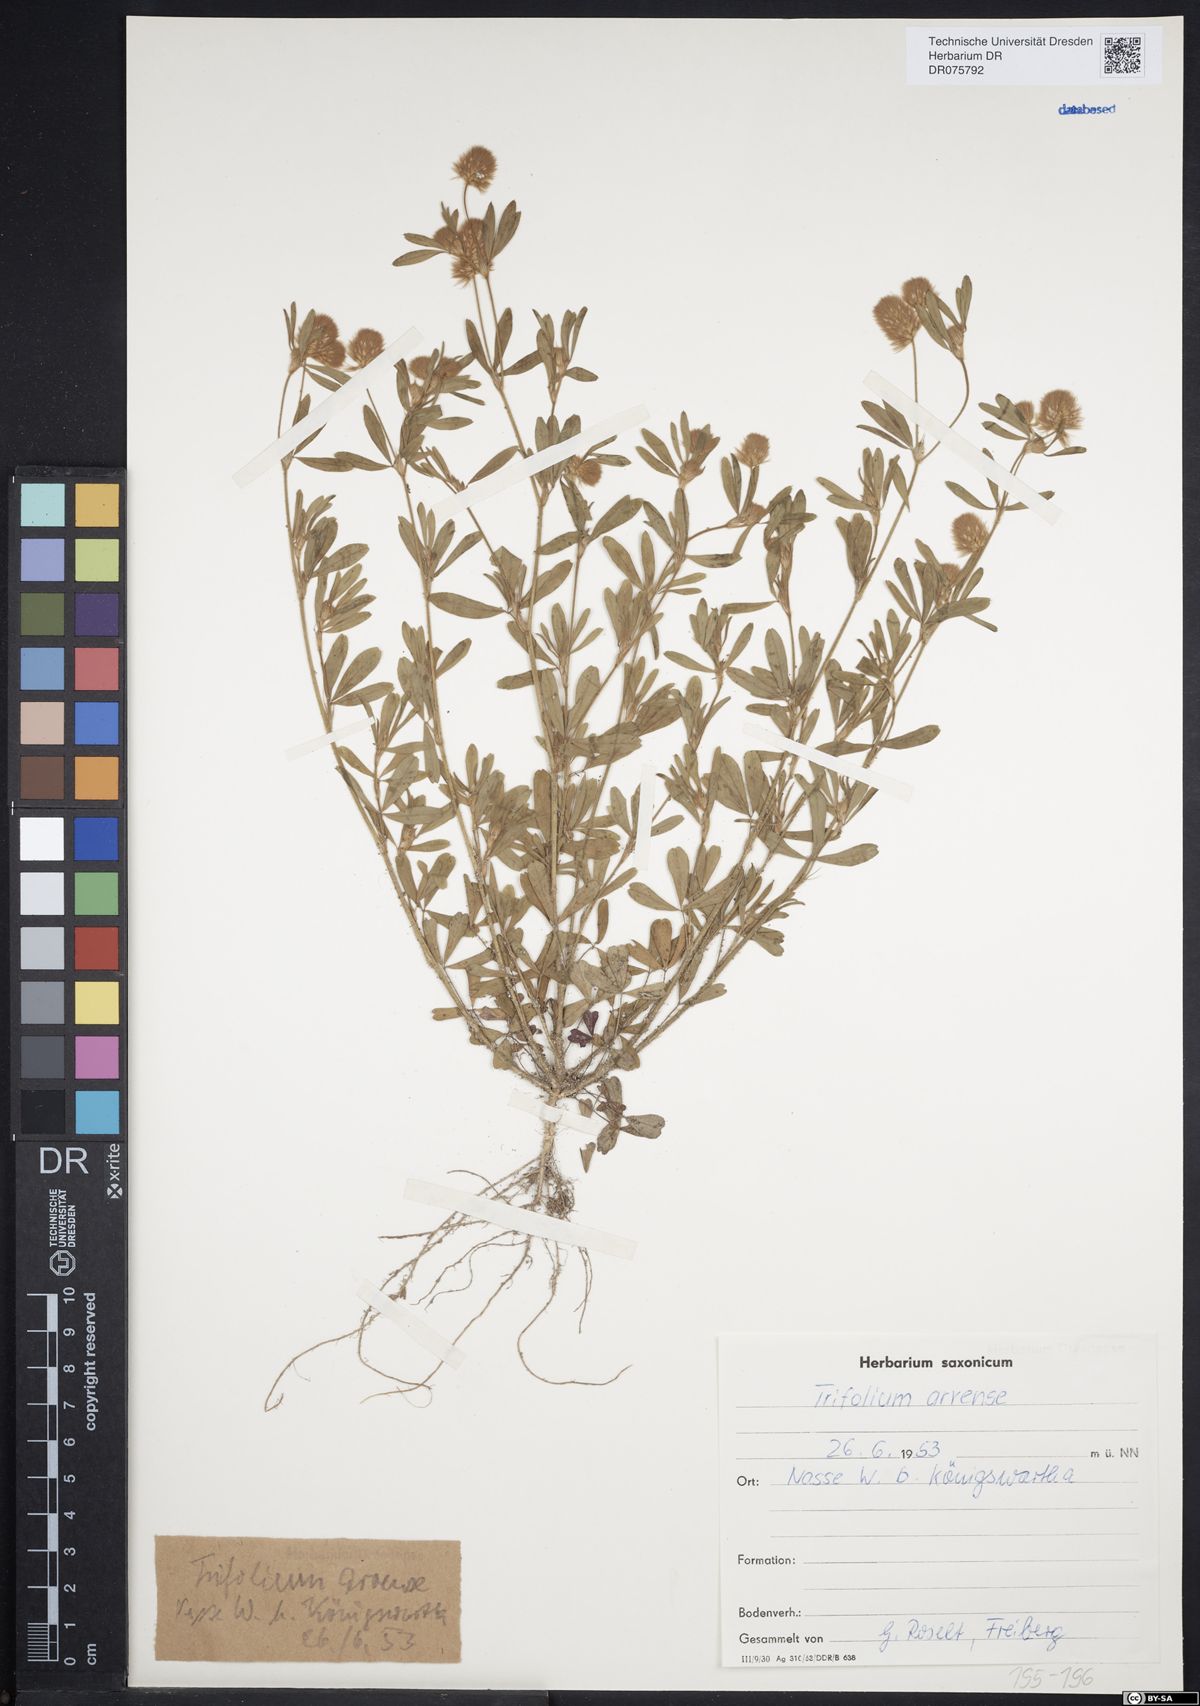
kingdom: Plantae
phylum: Tracheophyta
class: Magnoliopsida
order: Fabales
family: Fabaceae
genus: Trifolium
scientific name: Trifolium arvense
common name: Hare's-foot clover
